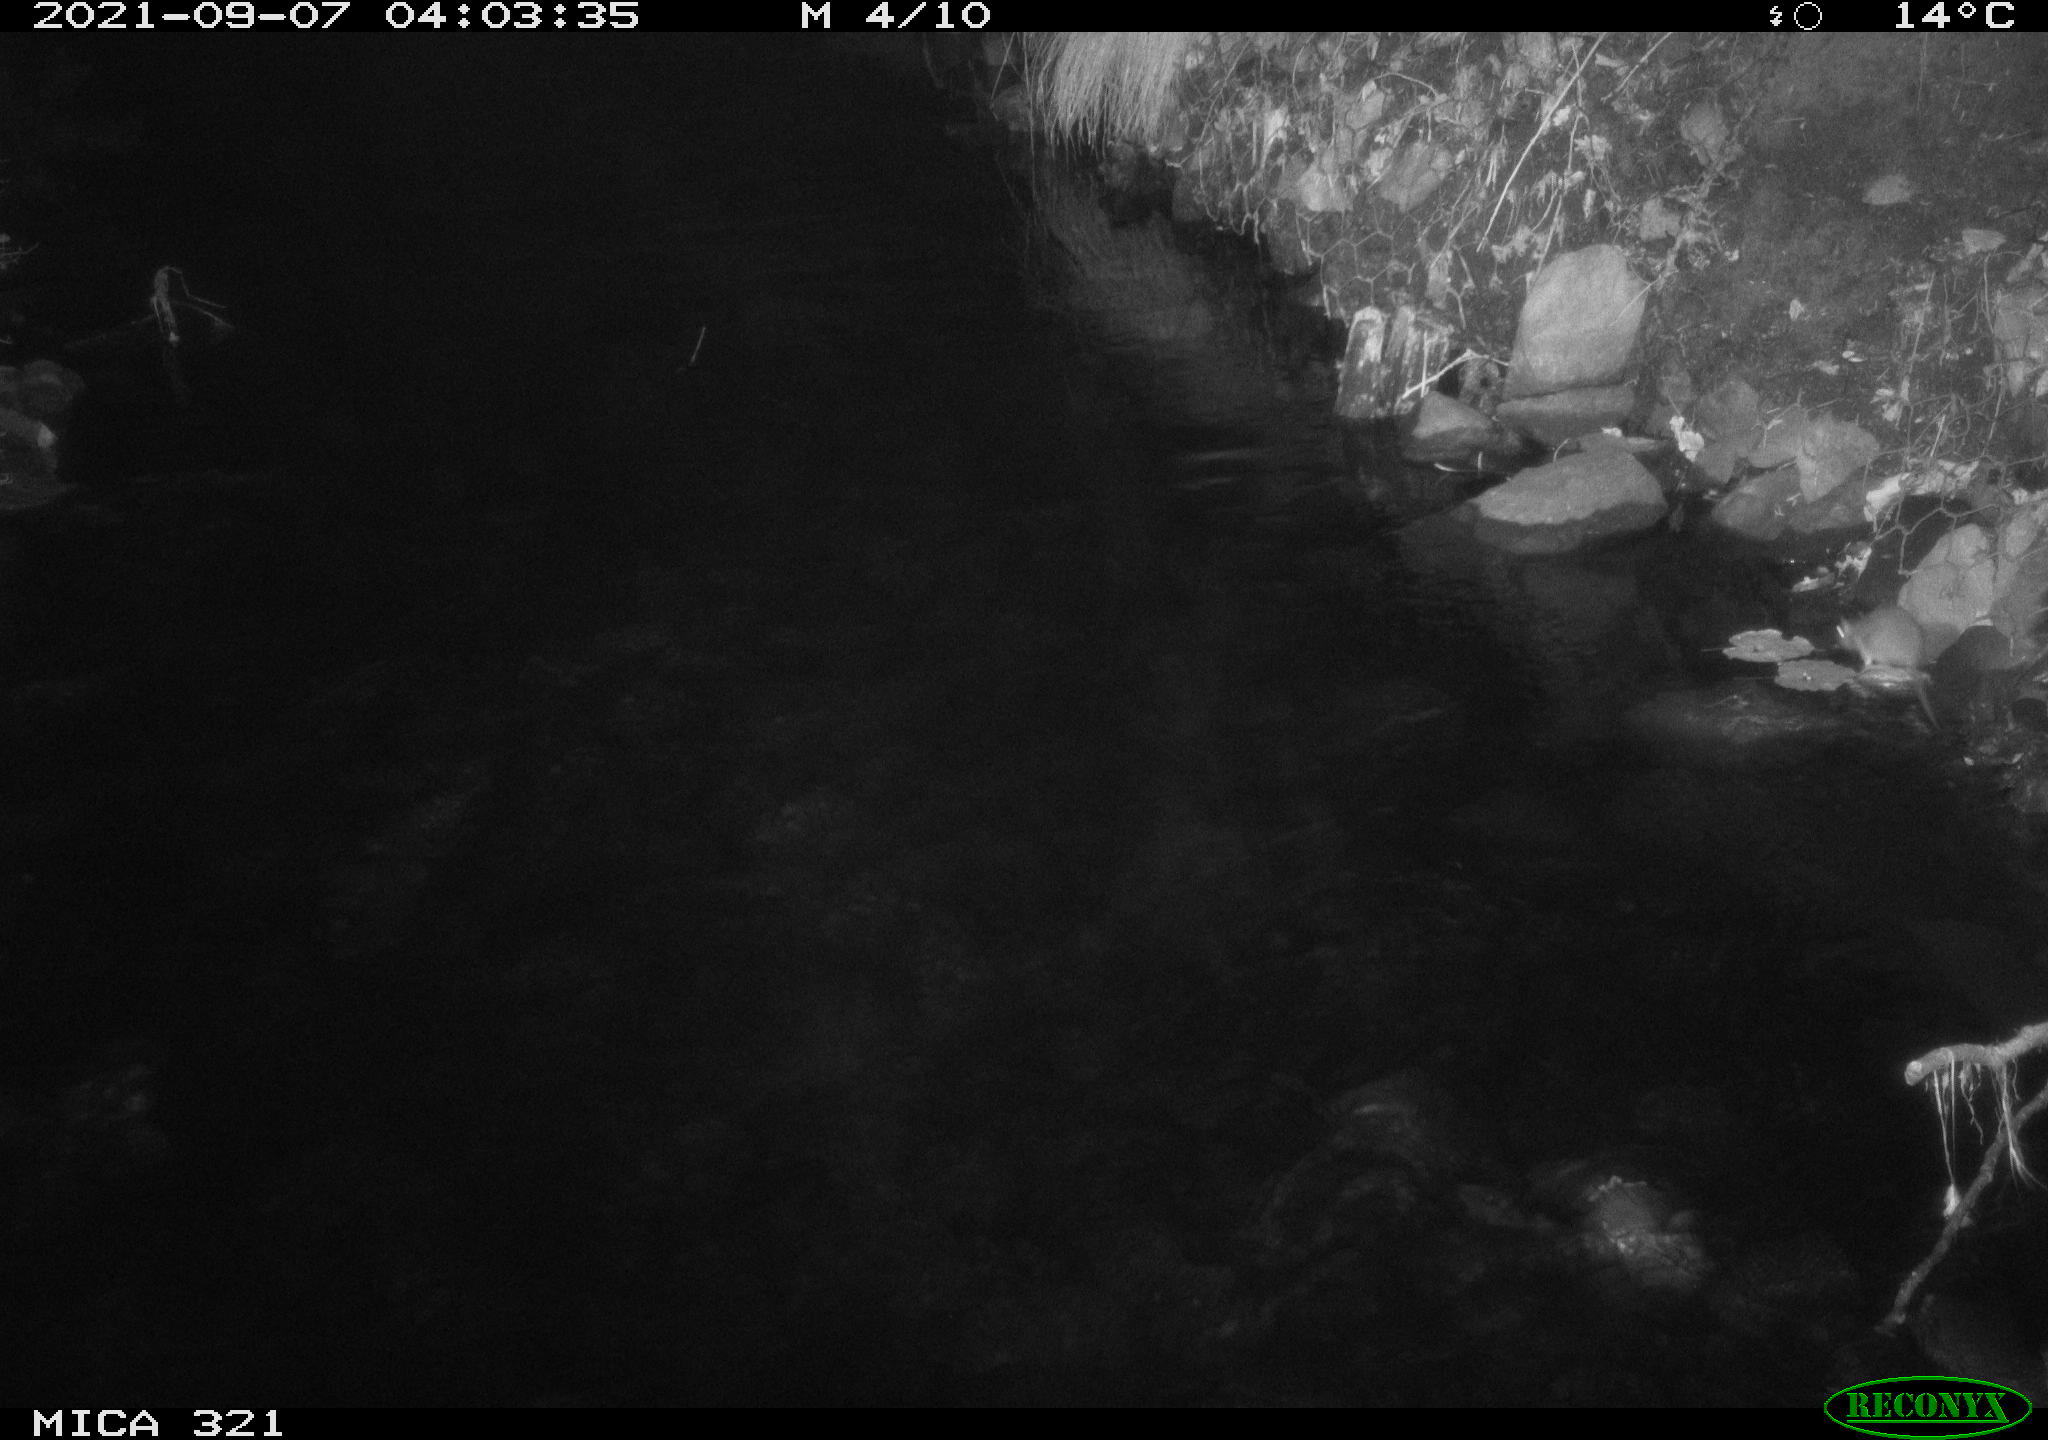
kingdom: Animalia
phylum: Chordata
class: Mammalia
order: Rodentia
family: Muridae
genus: Rattus
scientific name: Rattus norvegicus
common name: Brown rat
